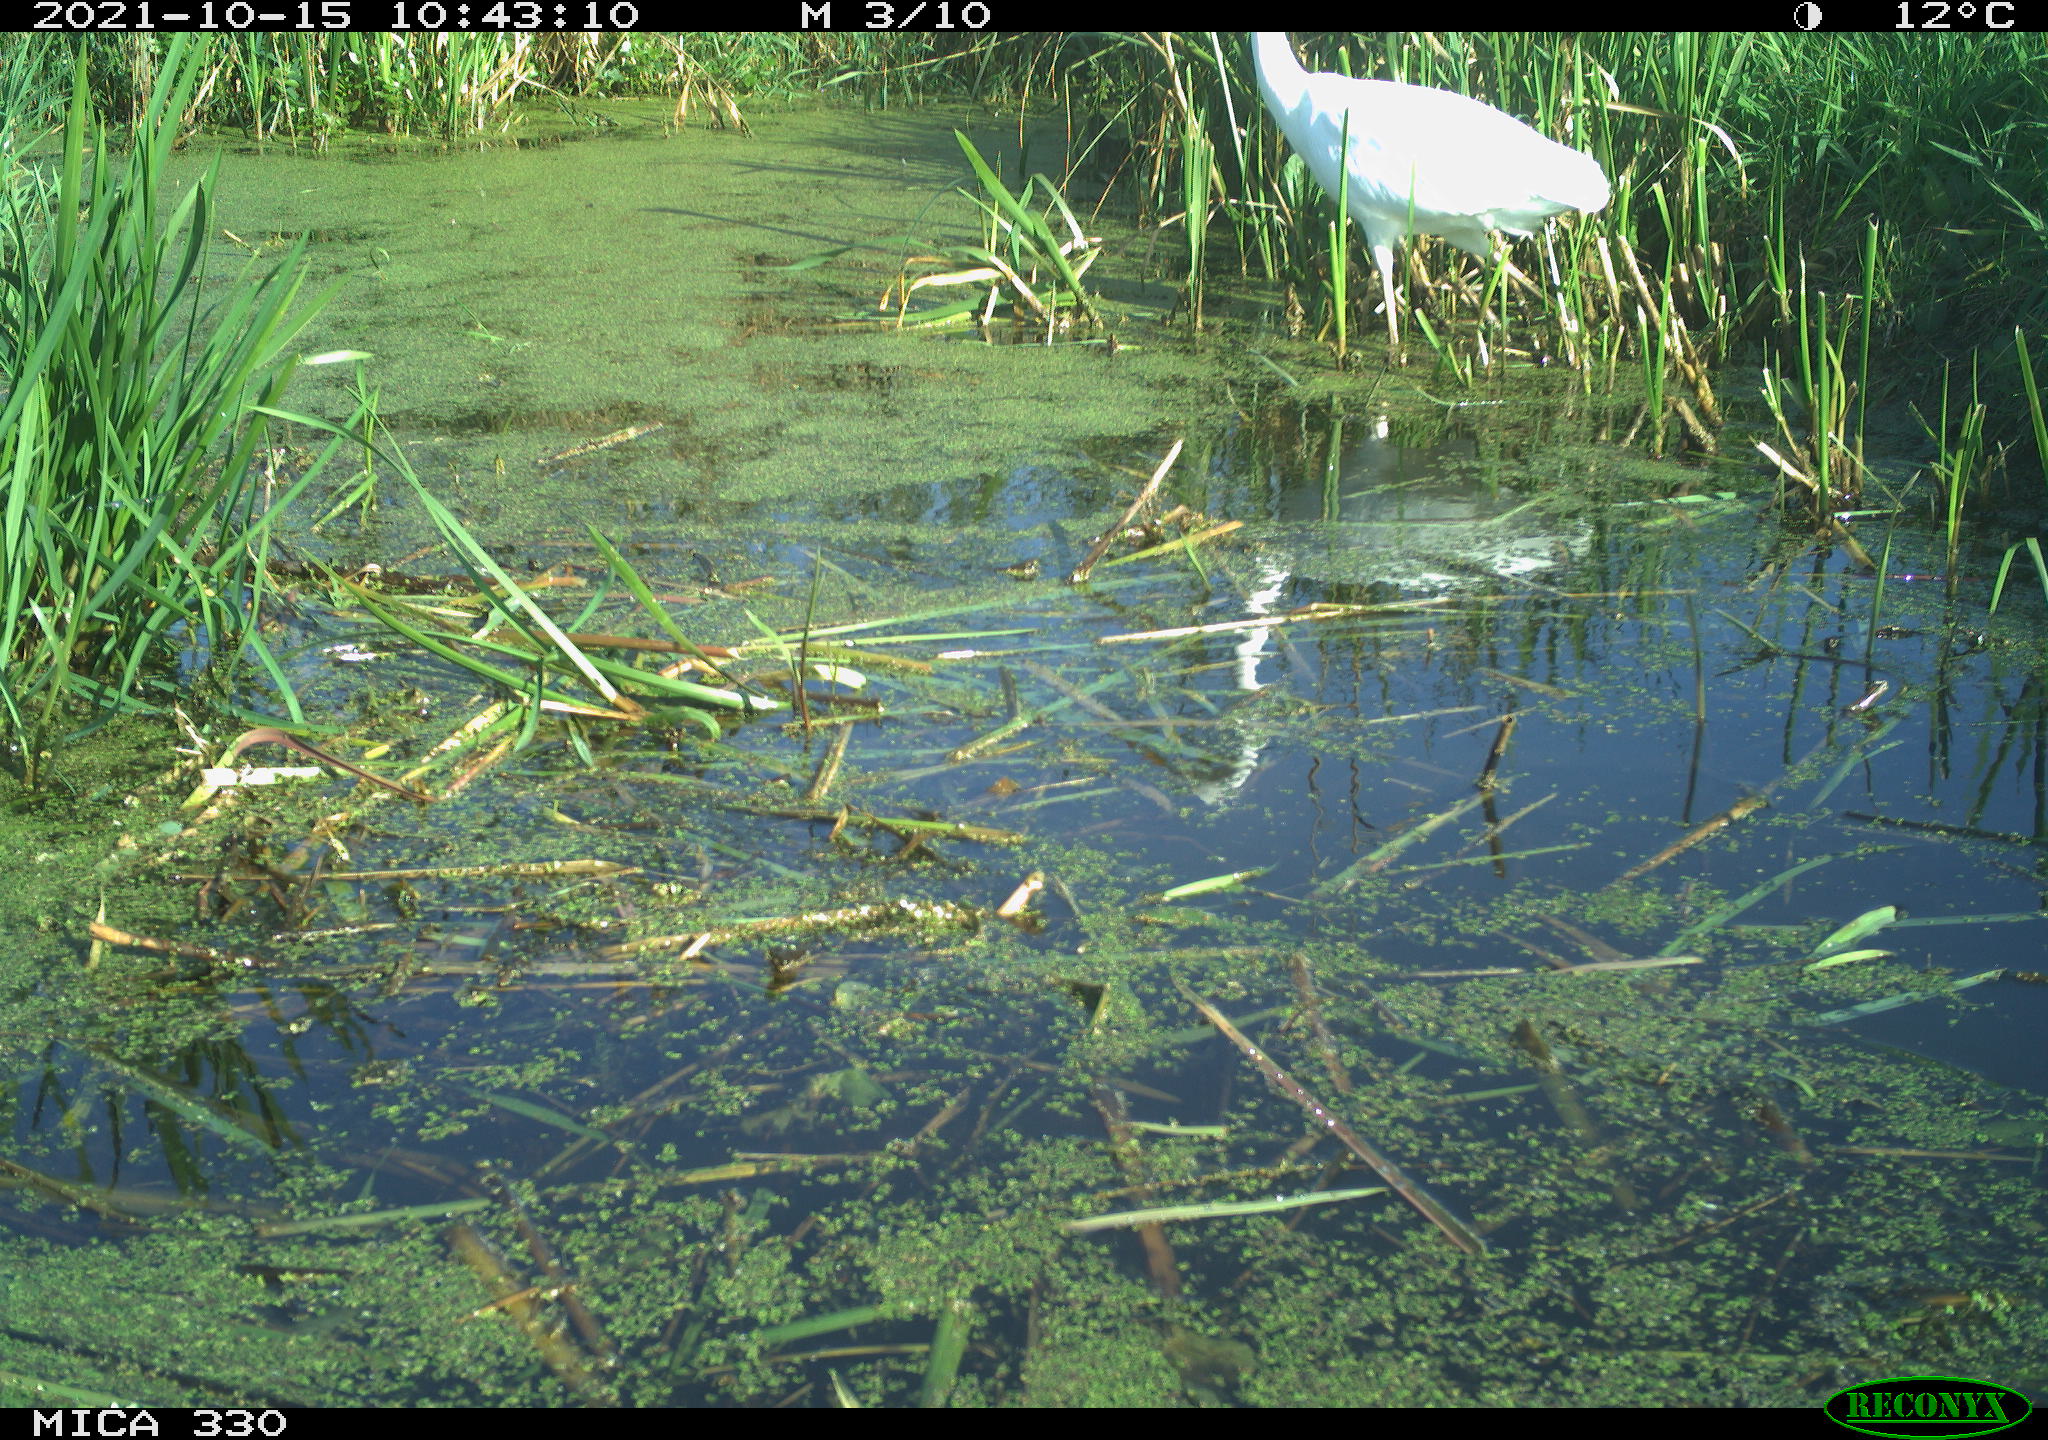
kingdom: Animalia
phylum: Chordata
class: Aves
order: Pelecaniformes
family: Ardeidae
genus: Ardea
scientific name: Ardea alba
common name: Great egret
